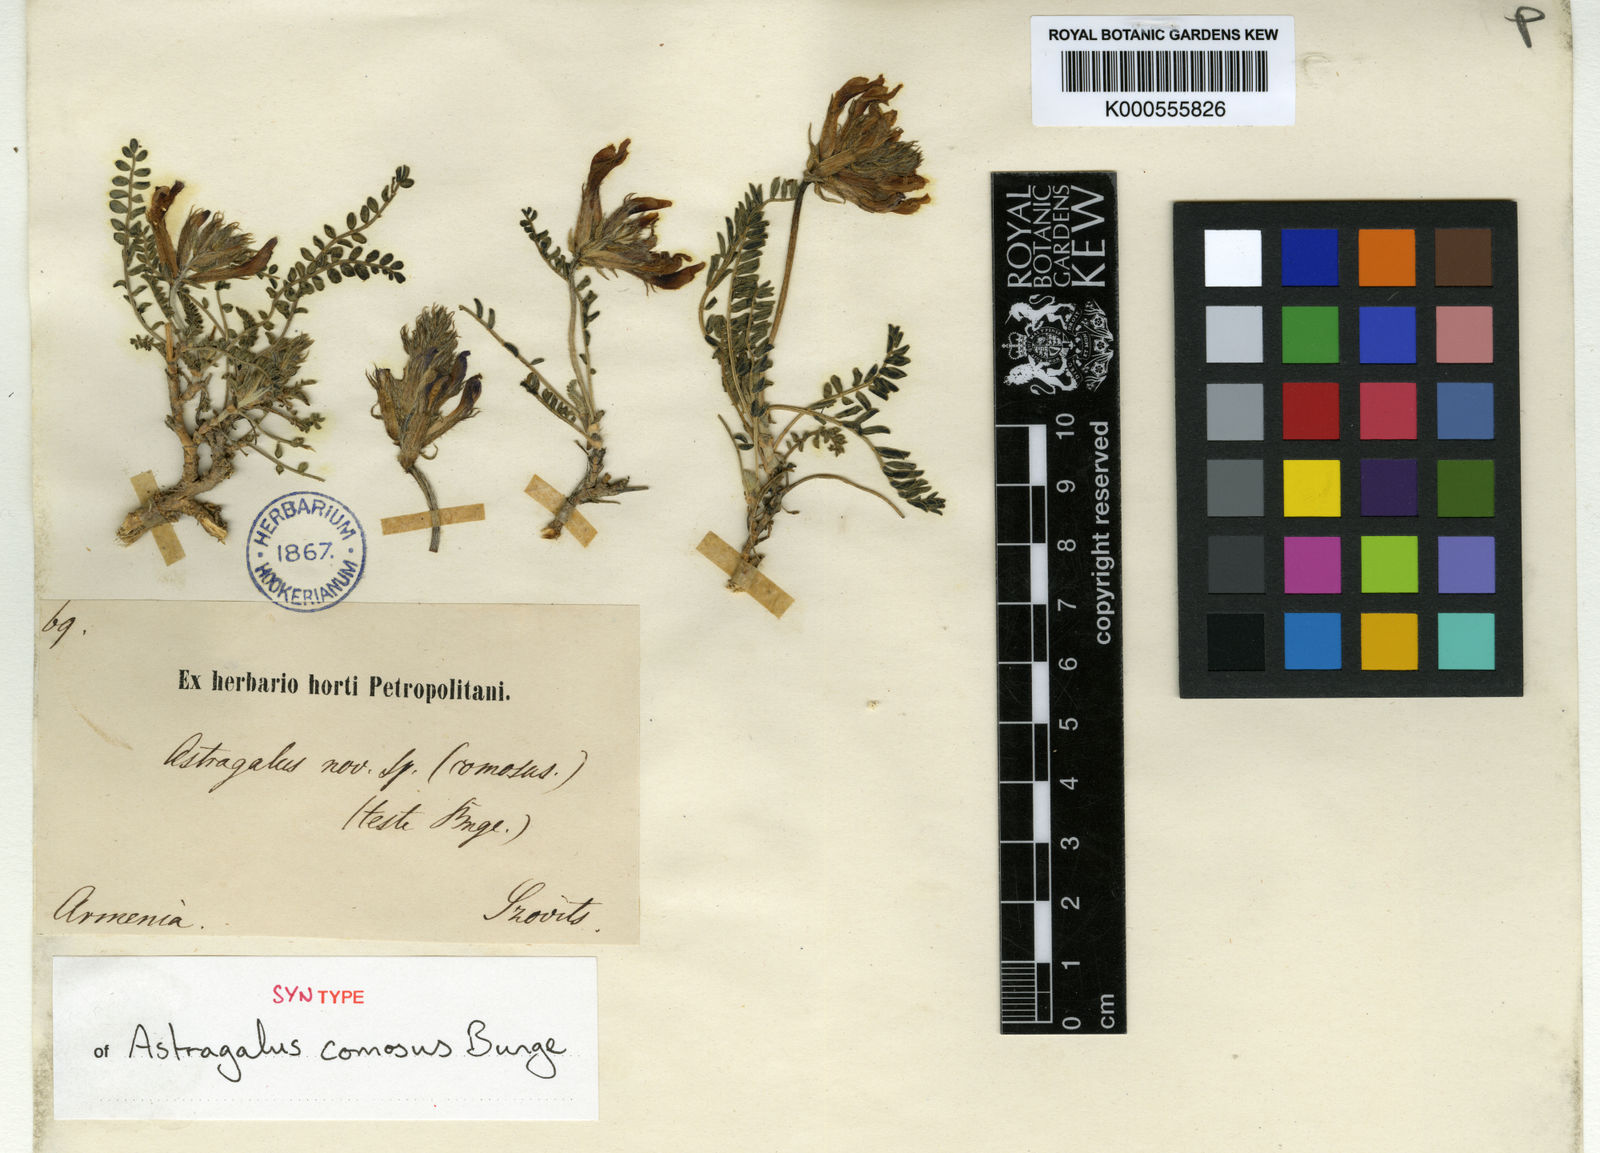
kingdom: Plantae
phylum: Tracheophyta
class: Magnoliopsida
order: Fabales
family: Fabaceae
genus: Astragalus
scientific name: Astragalus eriocarpus
